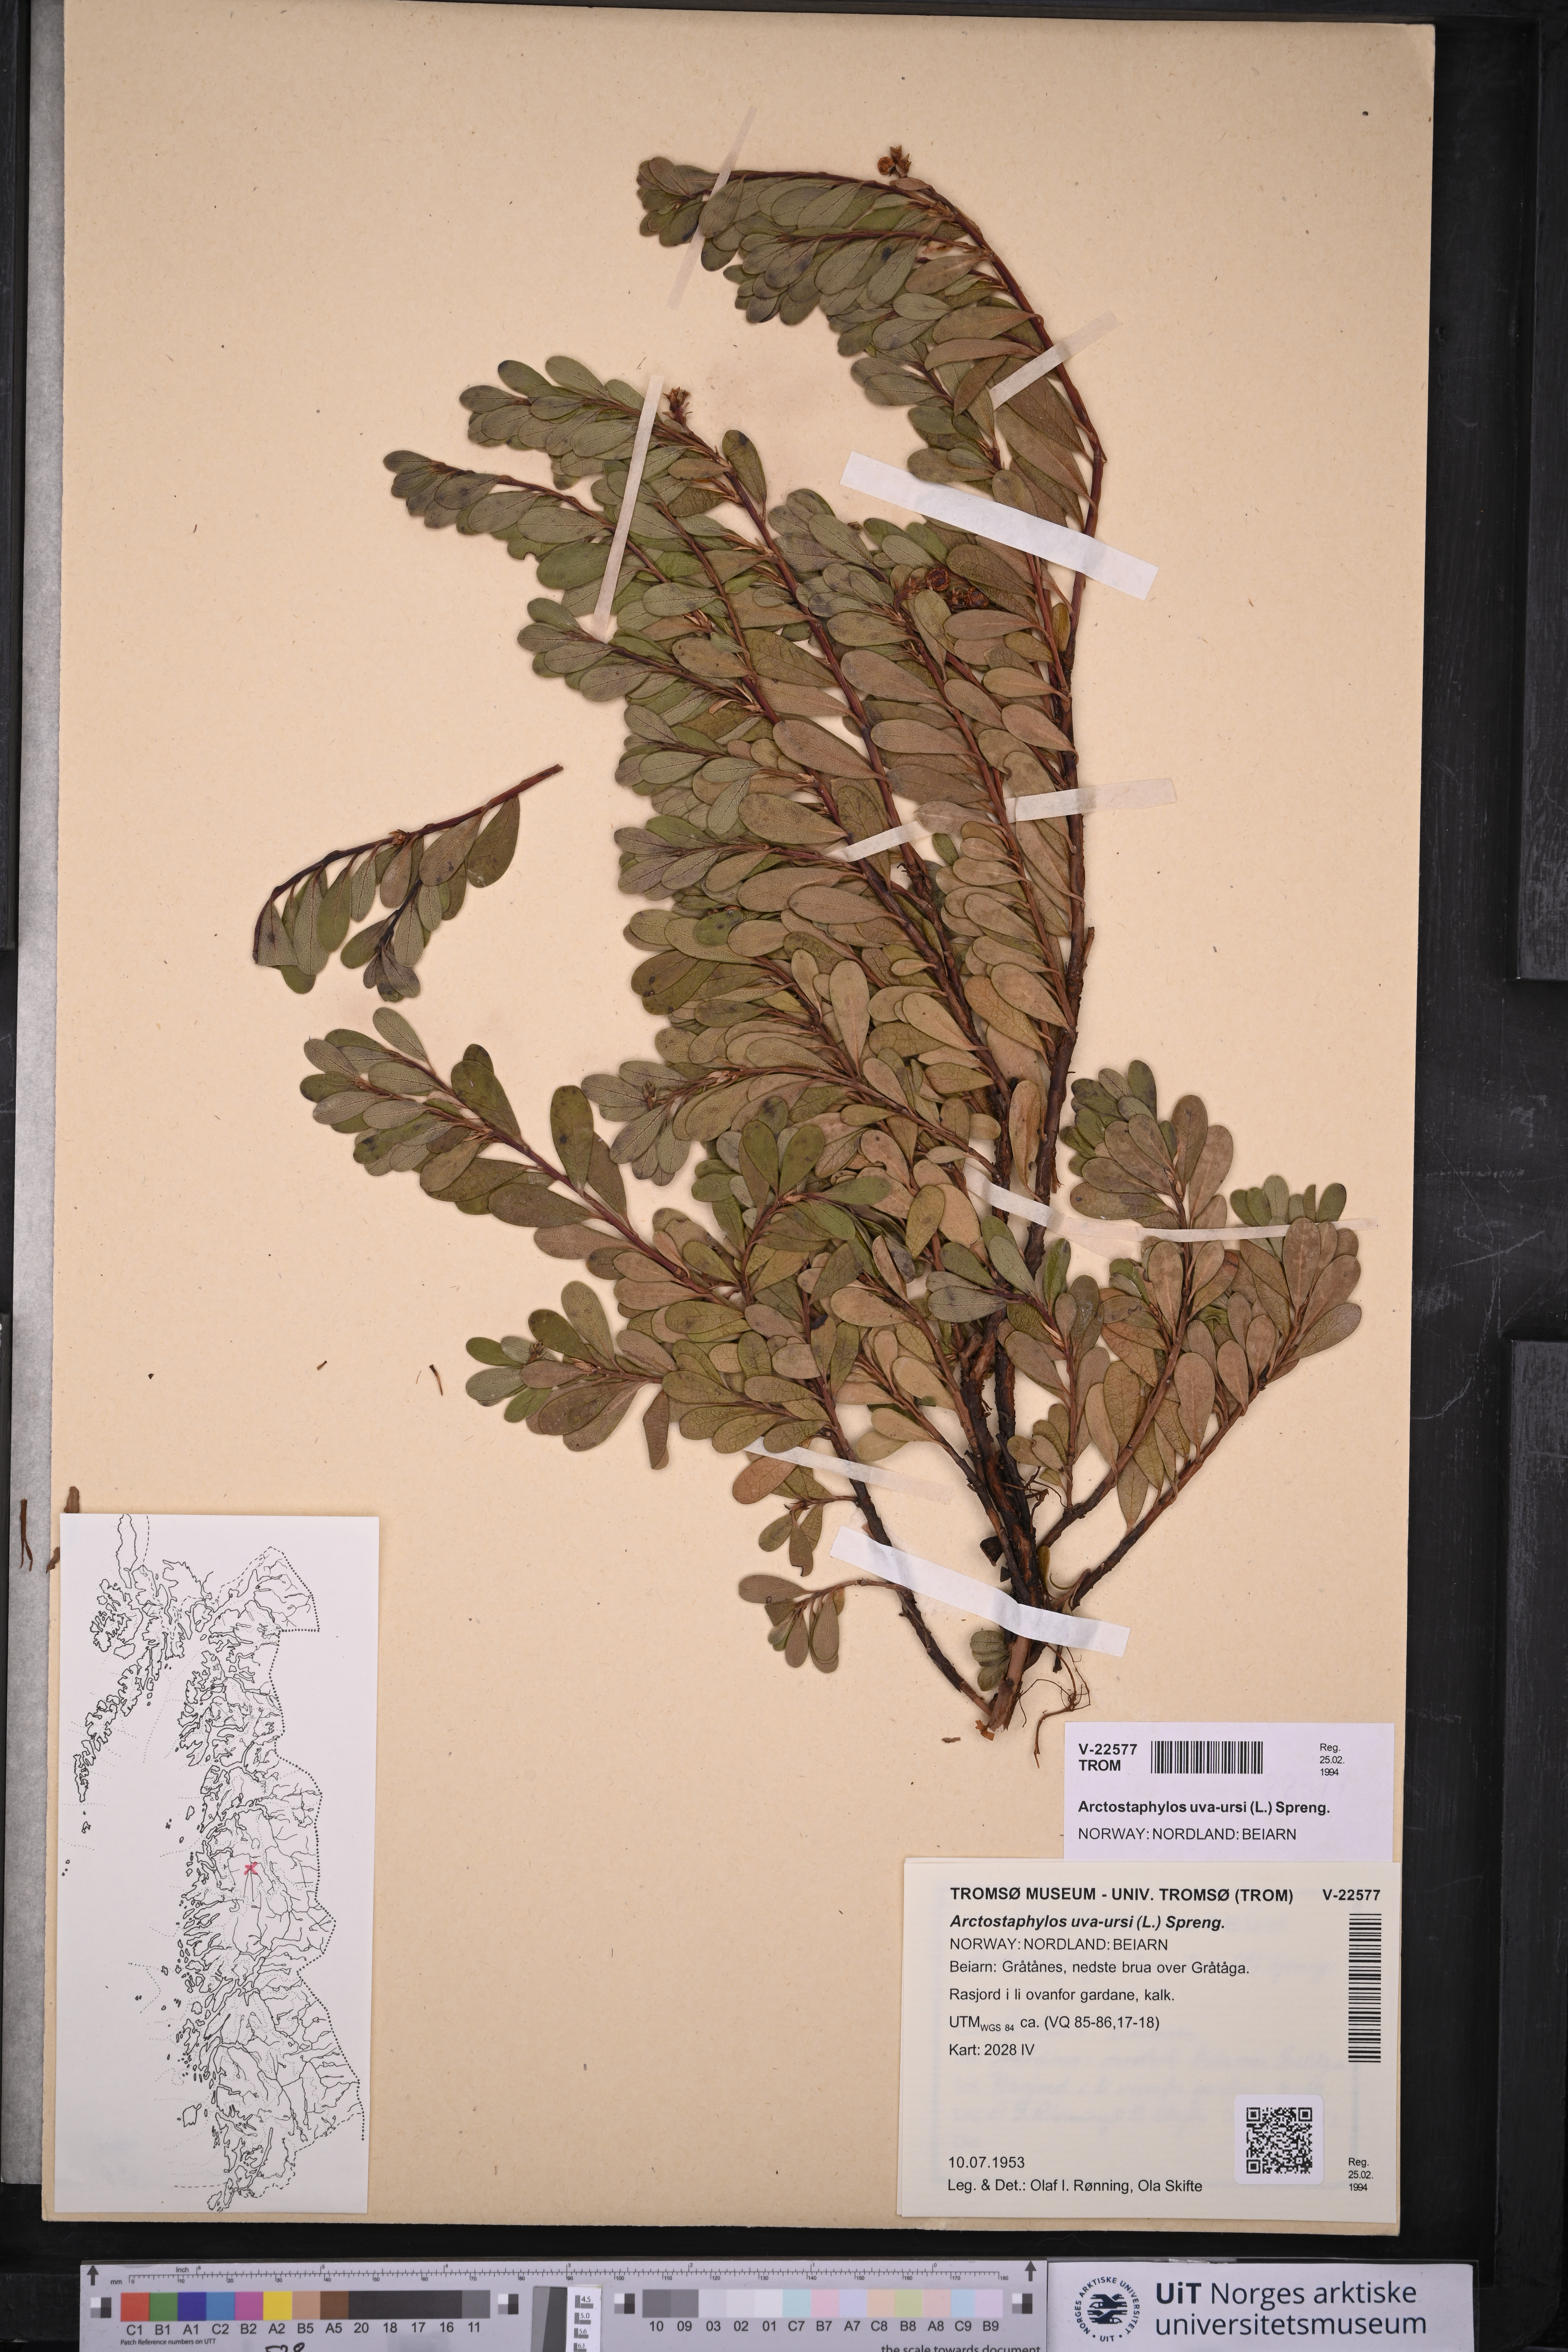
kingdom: Plantae
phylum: Tracheophyta
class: Magnoliopsida
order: Ericales
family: Ericaceae
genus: Arctostaphylos
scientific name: Arctostaphylos uva-ursi
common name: Bearberry
